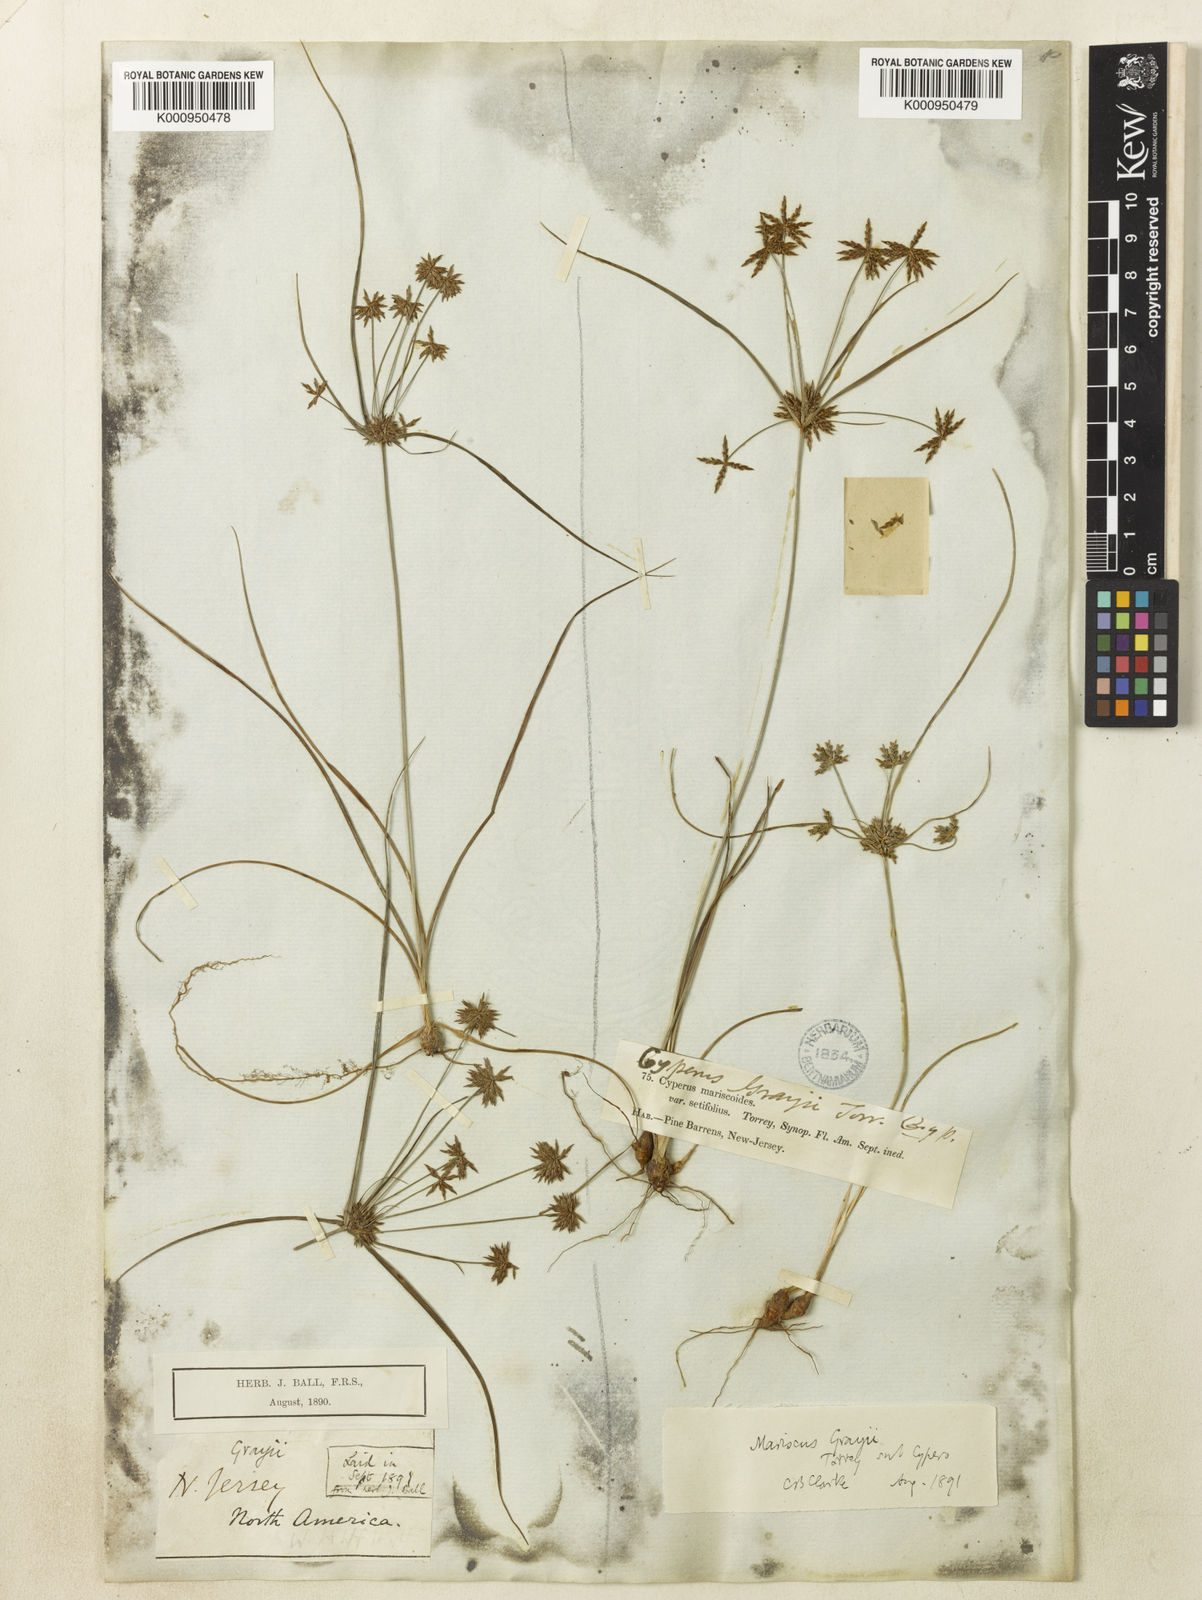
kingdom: Plantae
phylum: Tracheophyta
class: Liliopsida
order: Poales
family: Cyperaceae
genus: Cyperus
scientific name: Cyperus grayi
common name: Gray's flat sedge
